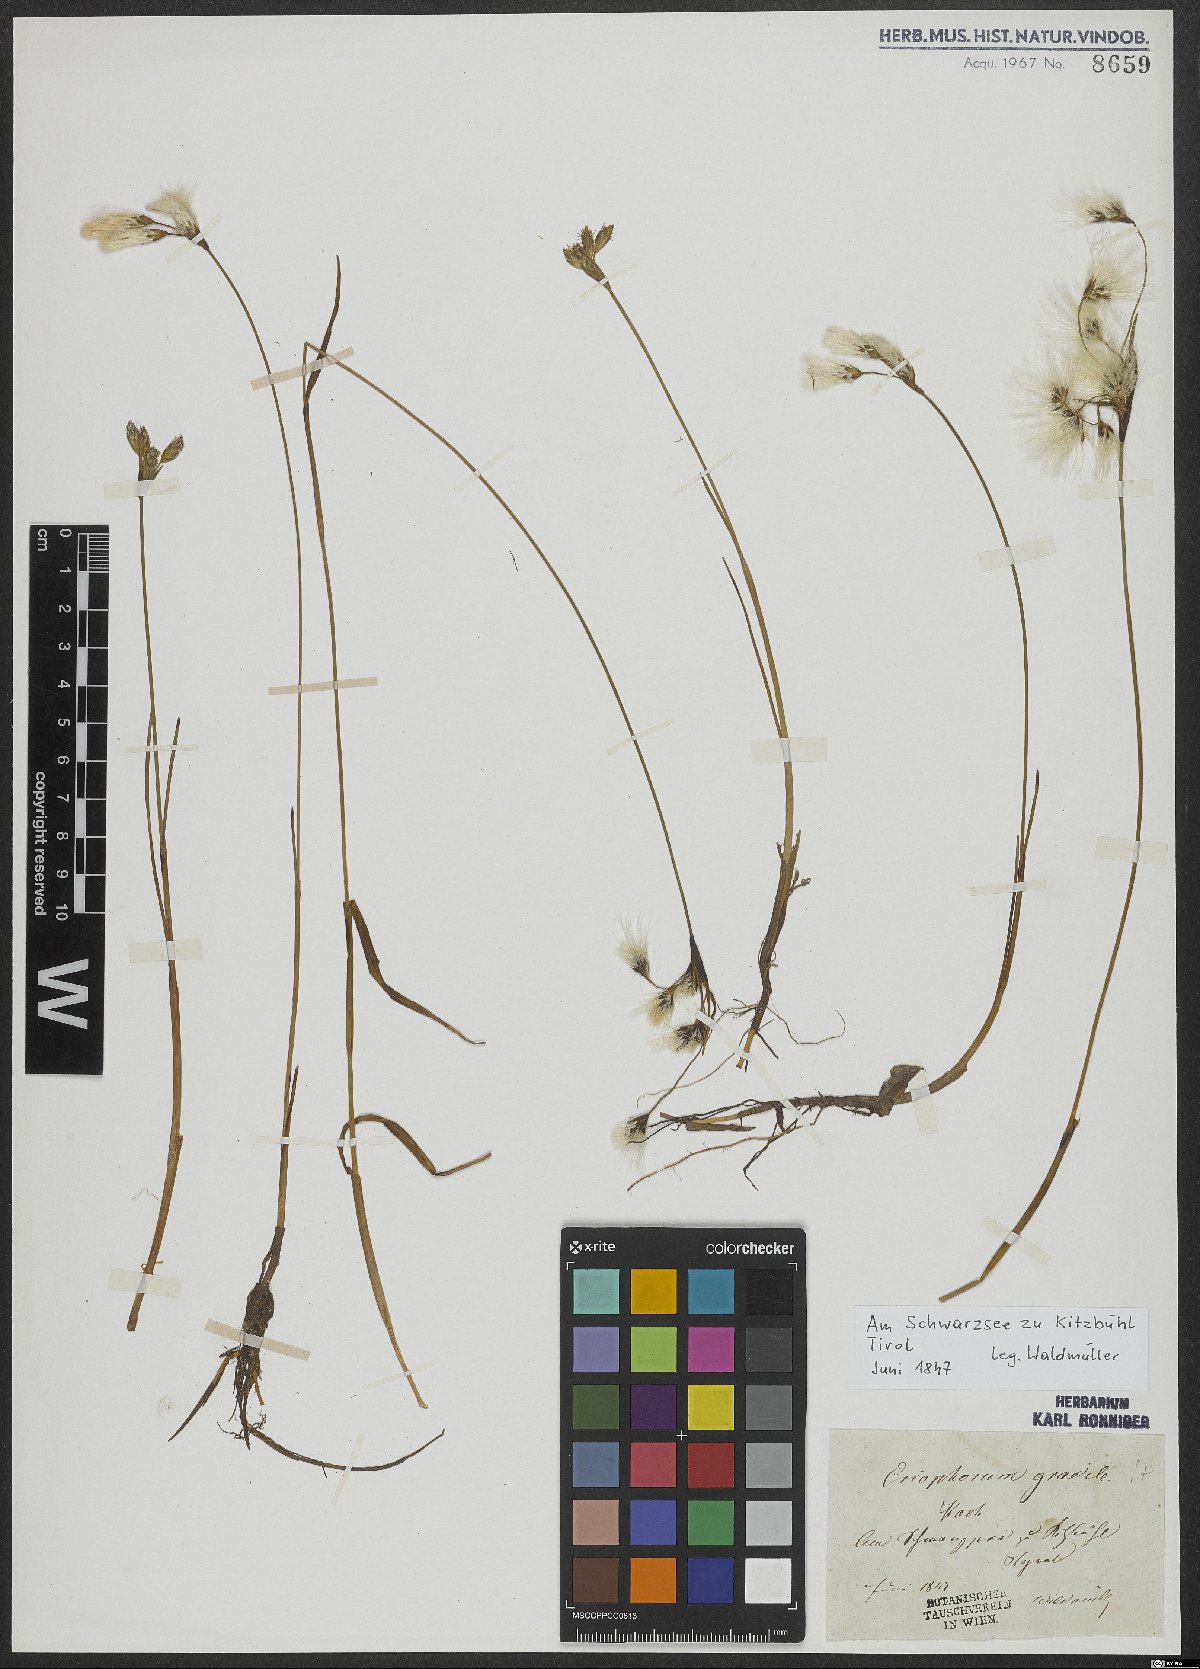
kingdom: Plantae
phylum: Tracheophyta
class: Liliopsida
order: Poales
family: Cyperaceae
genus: Eriophorum
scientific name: Eriophorum gracile
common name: Slender cottongrass
